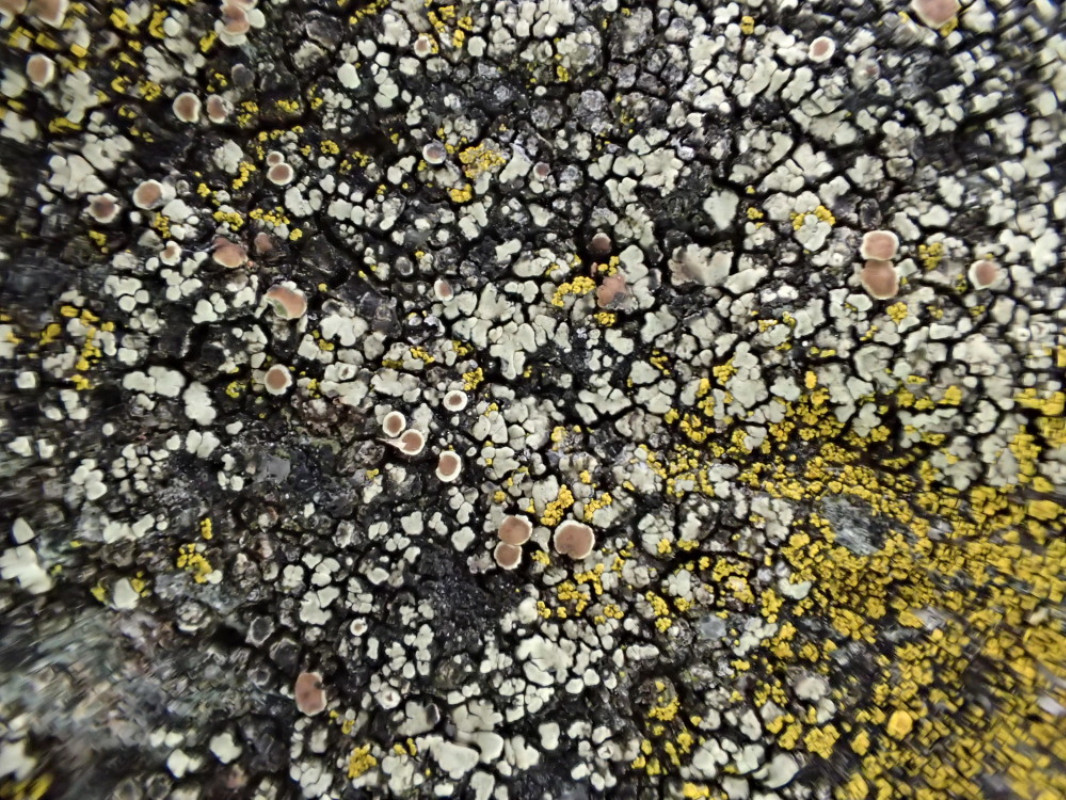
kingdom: Fungi
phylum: Ascomycota
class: Lecanoromycetes
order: Lecanorales
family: Lecanoraceae
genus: Protoparmeliopsis
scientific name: Protoparmeliopsis muralis
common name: randfliget kantskivelav
